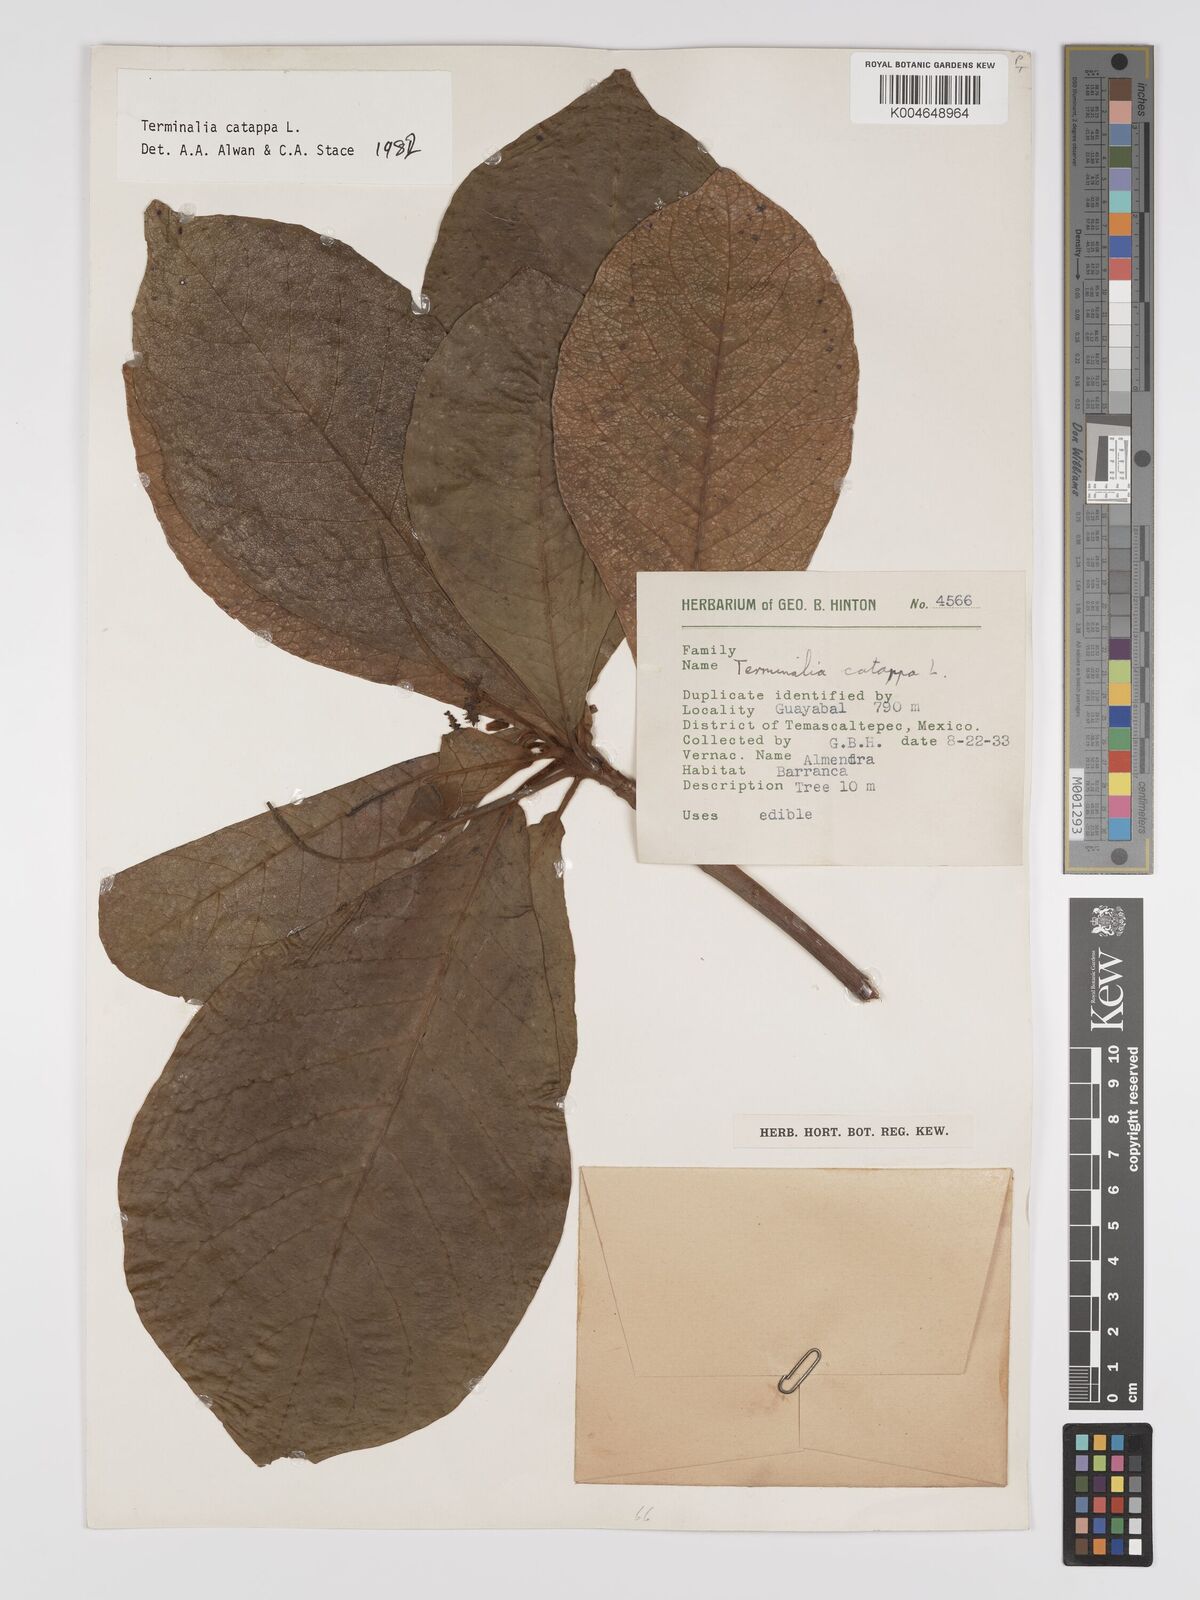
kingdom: Plantae
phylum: Tracheophyta
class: Magnoliopsida
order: Myrtales
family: Combretaceae
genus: Terminalia
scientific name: Terminalia catappa
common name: Tropical almond
